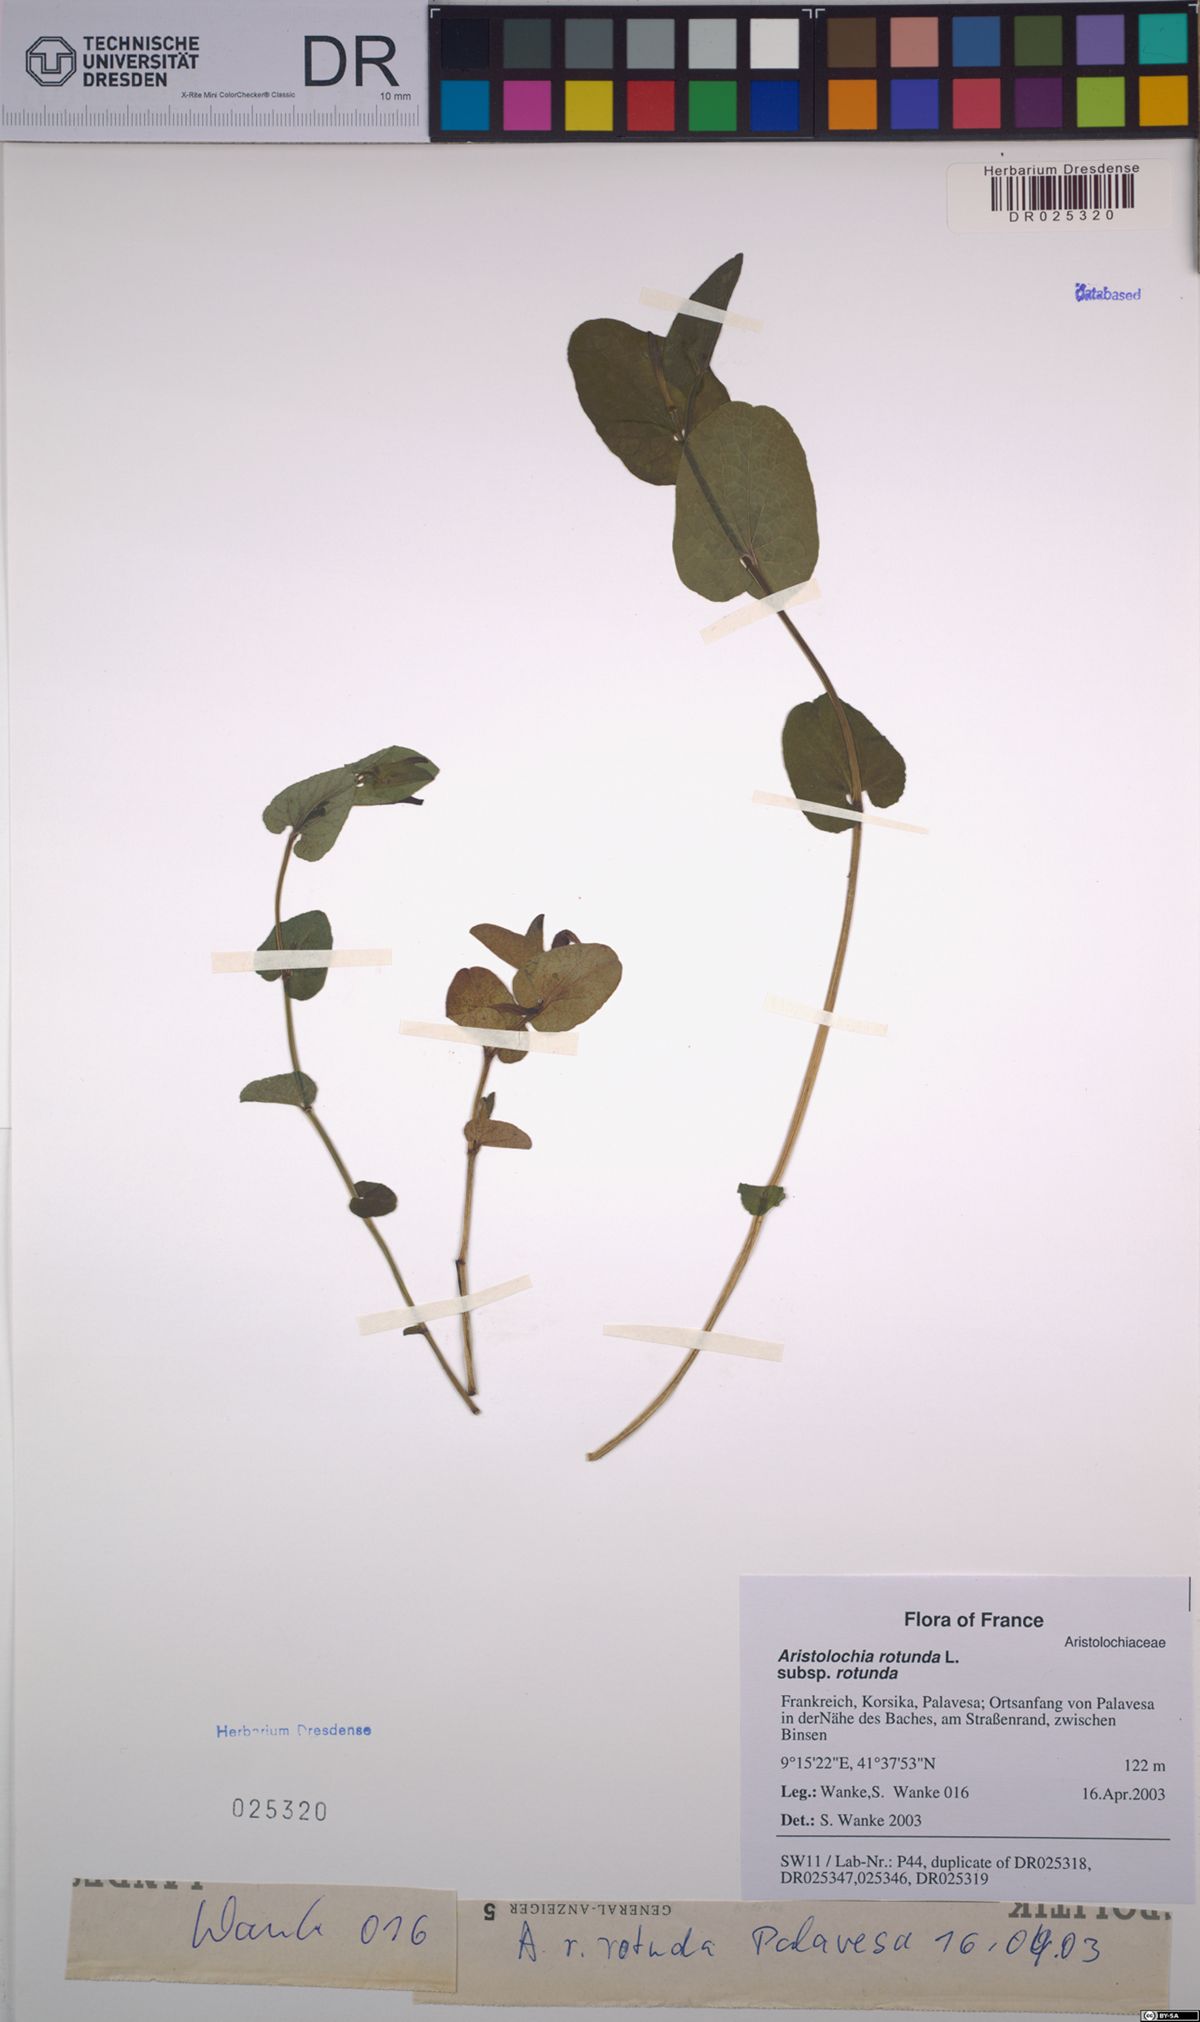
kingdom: Plantae
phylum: Tracheophyta
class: Magnoliopsida
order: Piperales
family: Aristolochiaceae
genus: Aristolochia
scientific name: Aristolochia rotunda
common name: Smearwort
